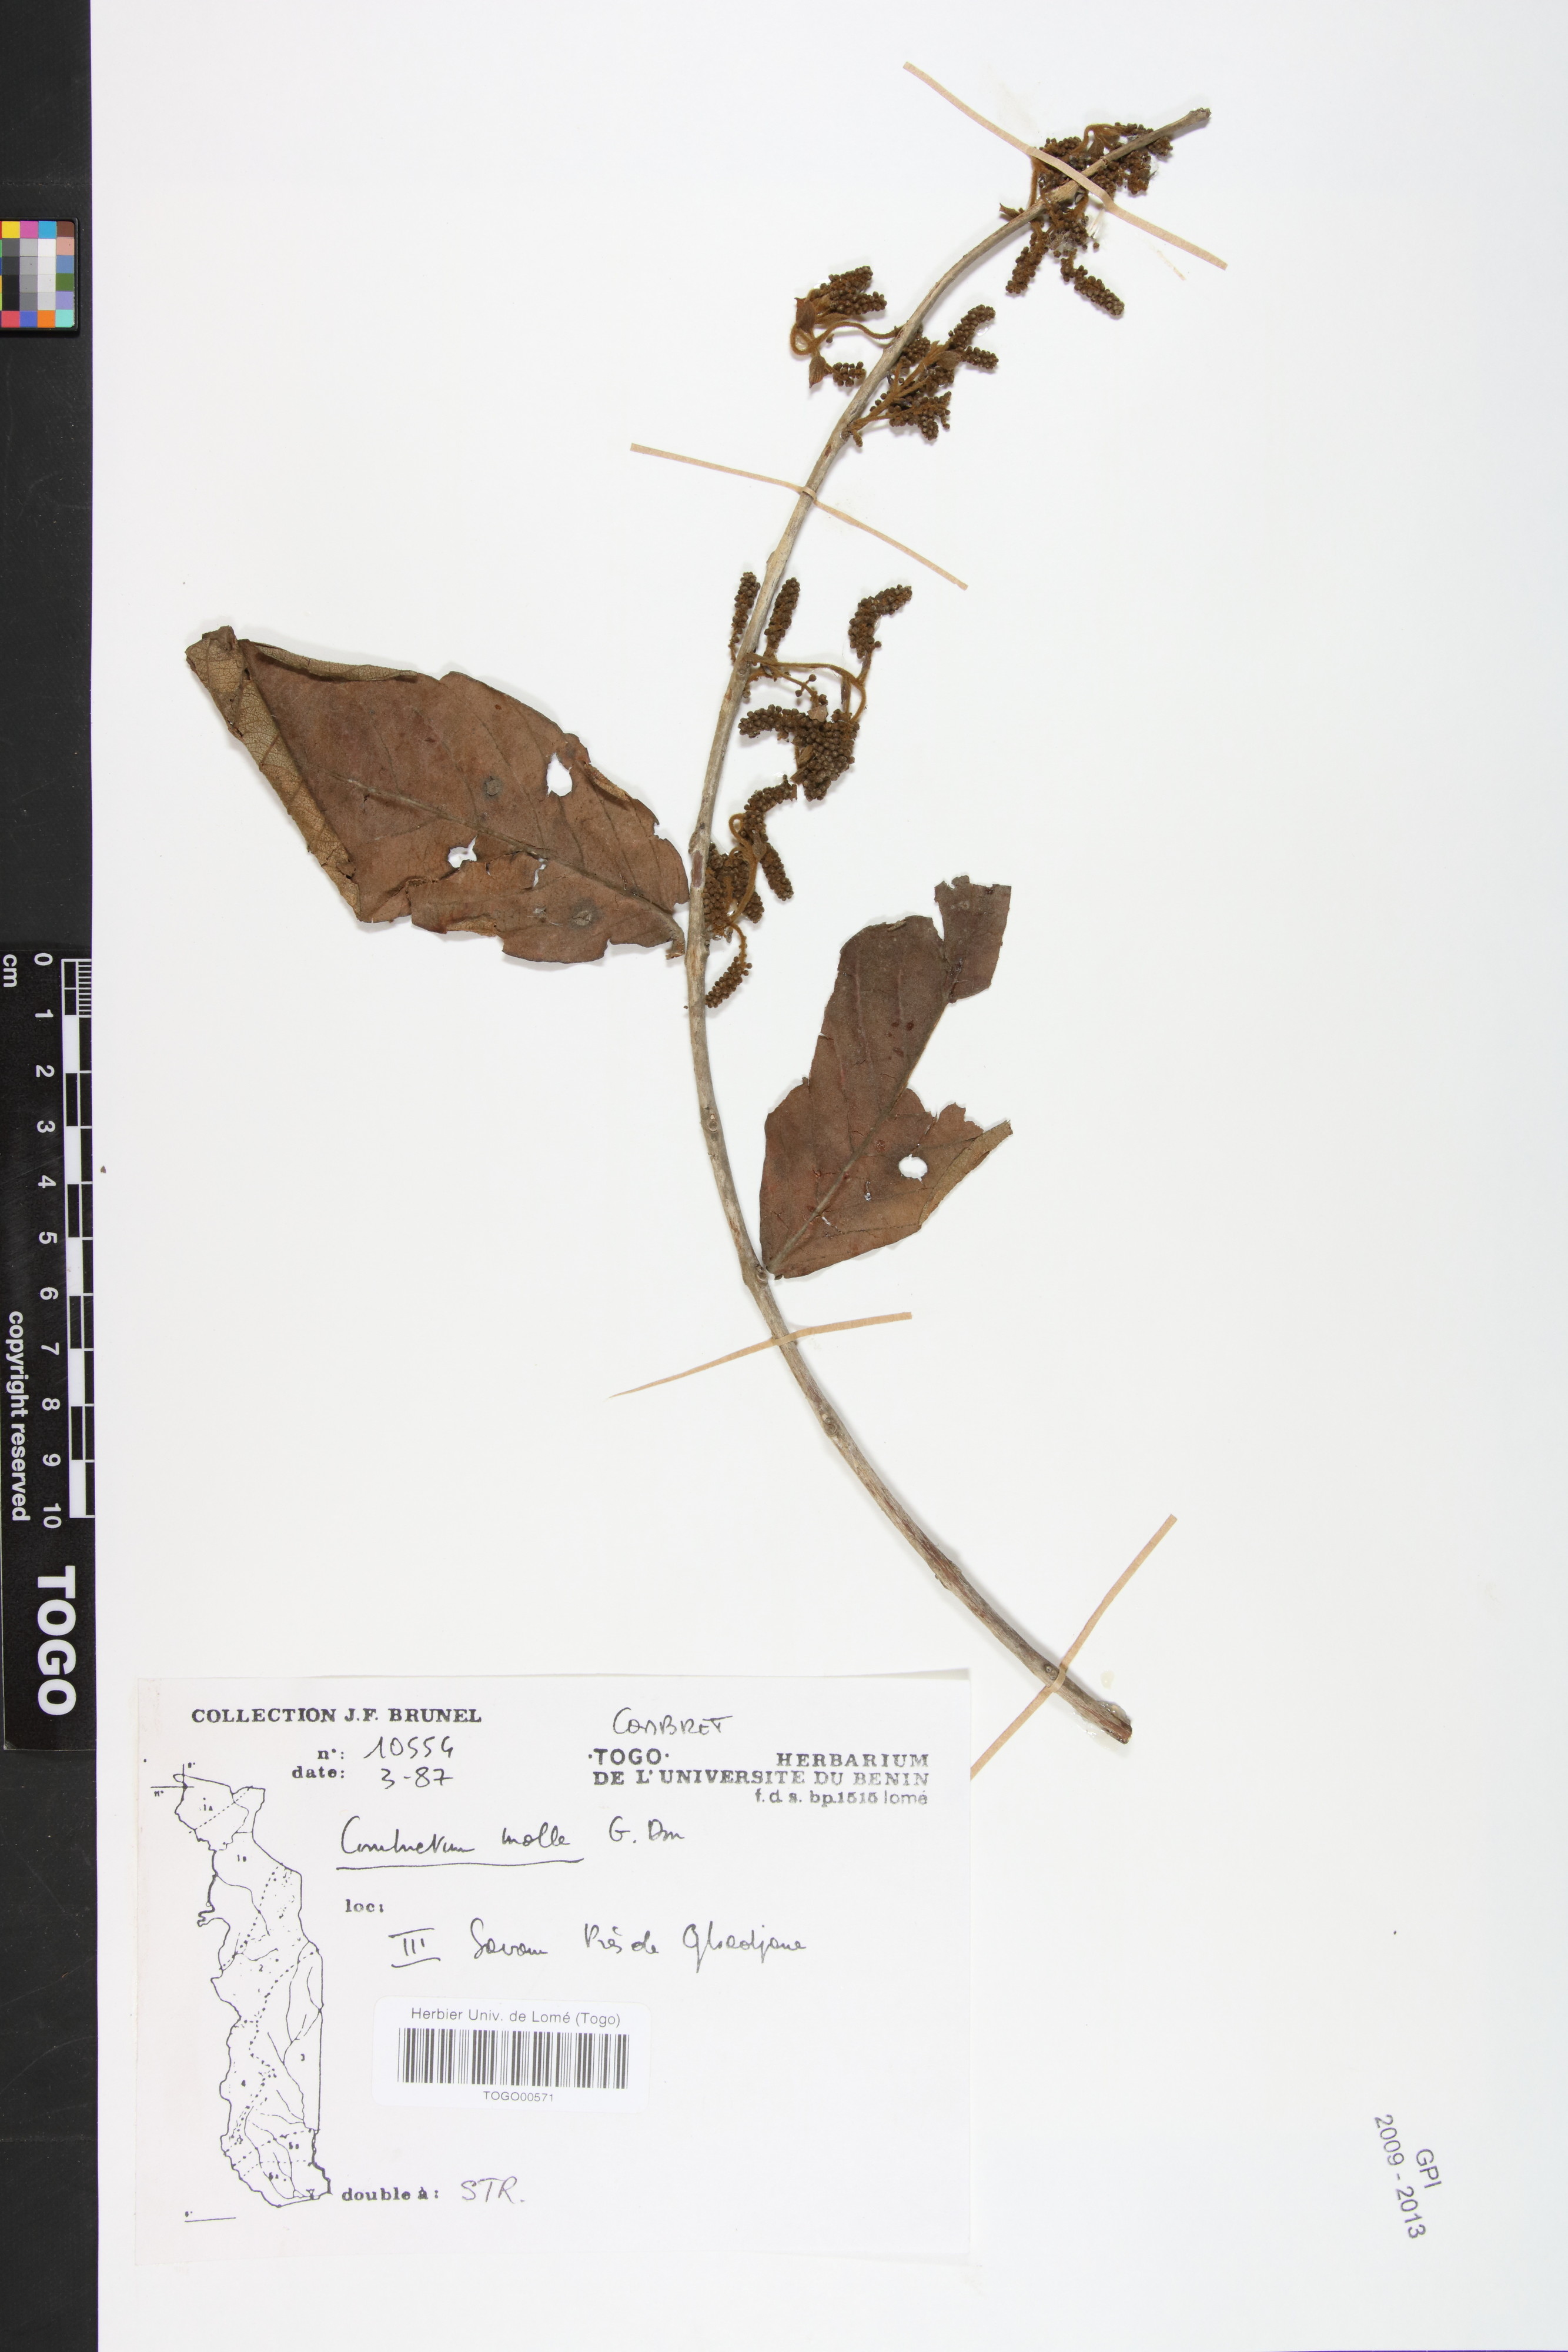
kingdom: Plantae
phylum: Tracheophyta
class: Magnoliopsida
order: Myrtales
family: Combretaceae
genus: Combretum
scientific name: Combretum molle
